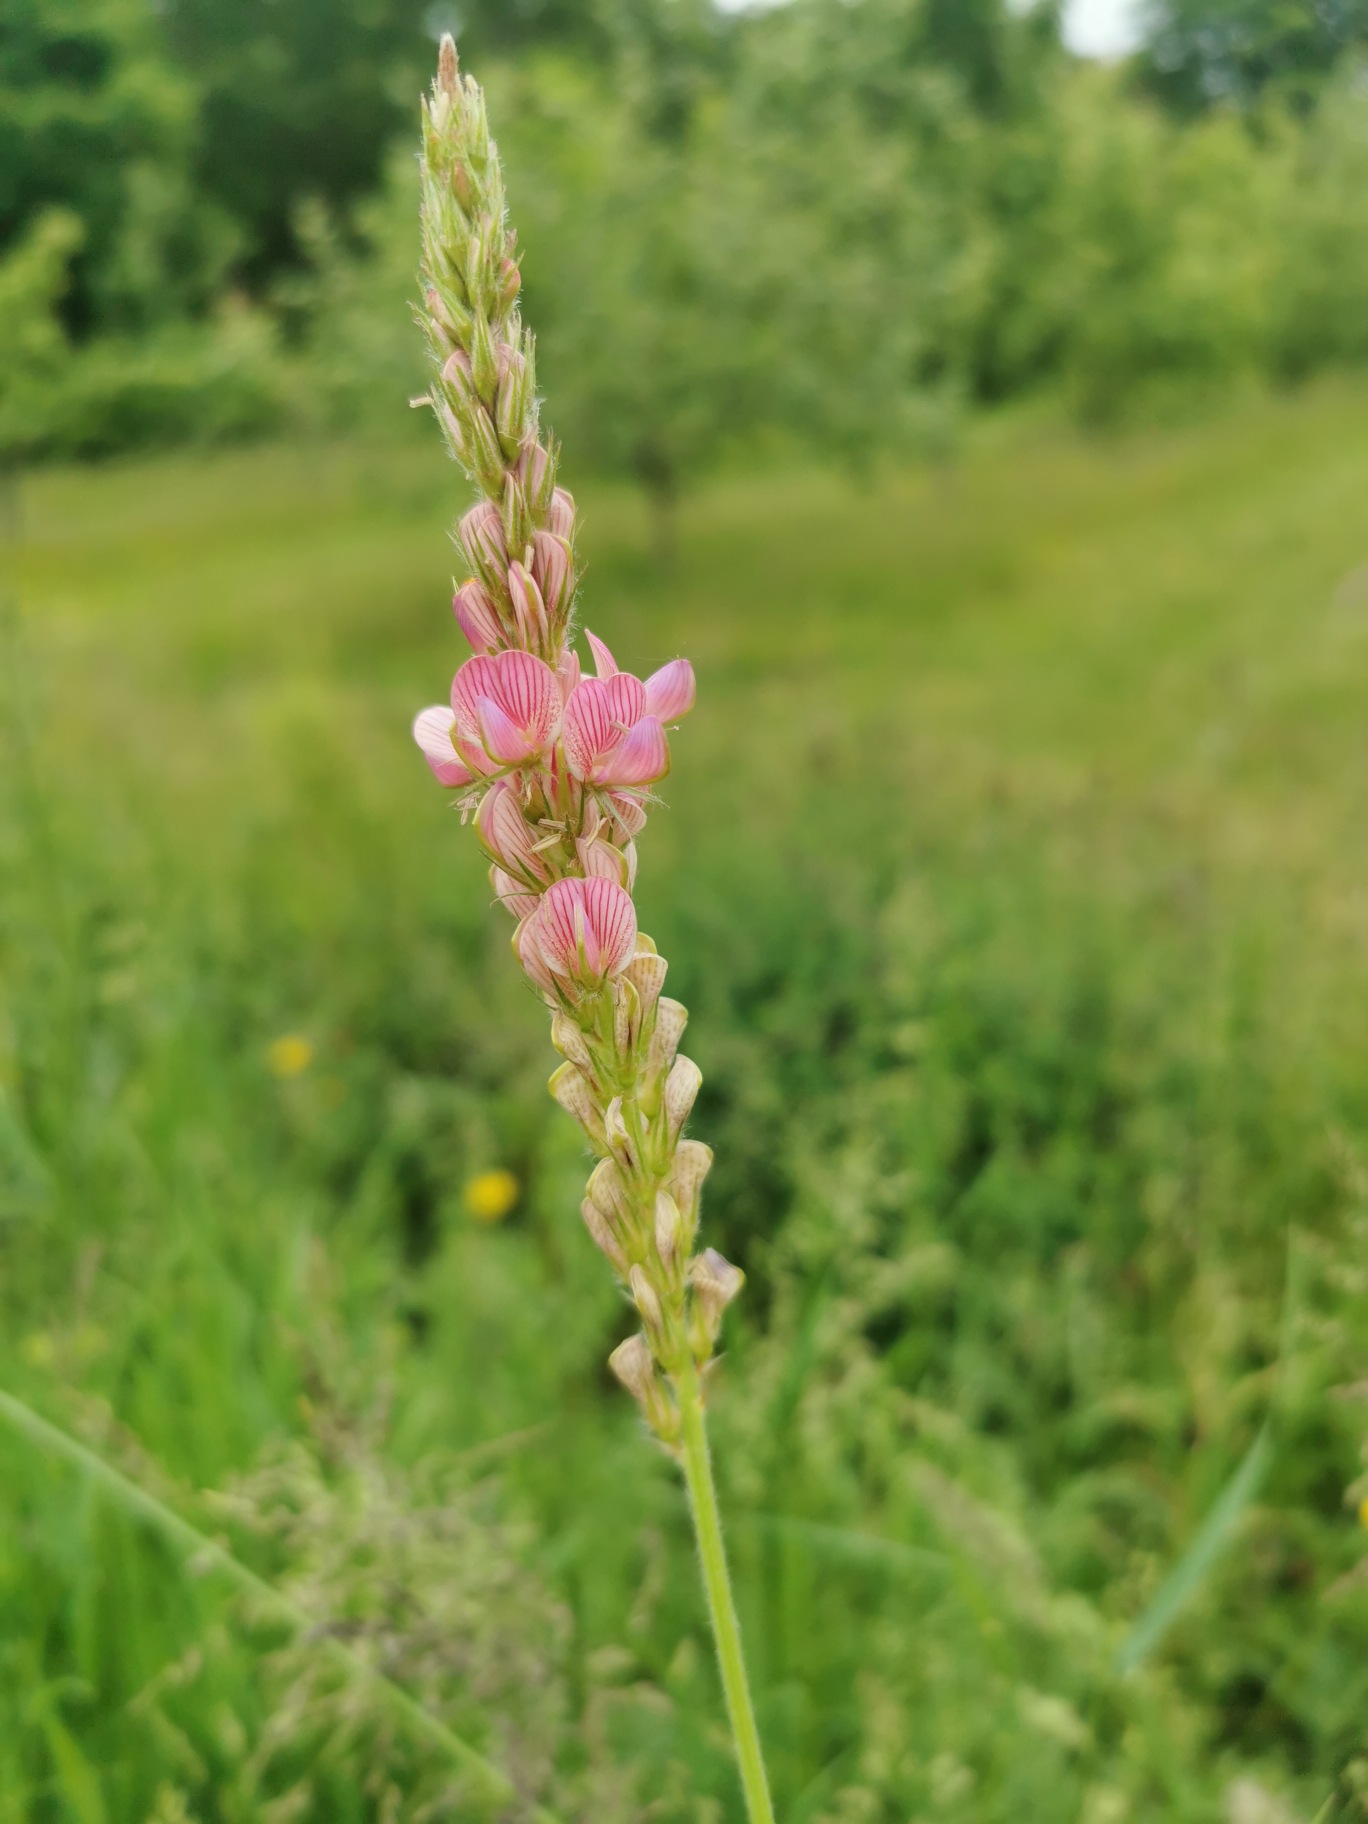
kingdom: Plantae
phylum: Tracheophyta
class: Magnoliopsida
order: Fabales
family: Fabaceae
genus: Onobrychis
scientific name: Onobrychis viciifolia
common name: Esparsette
